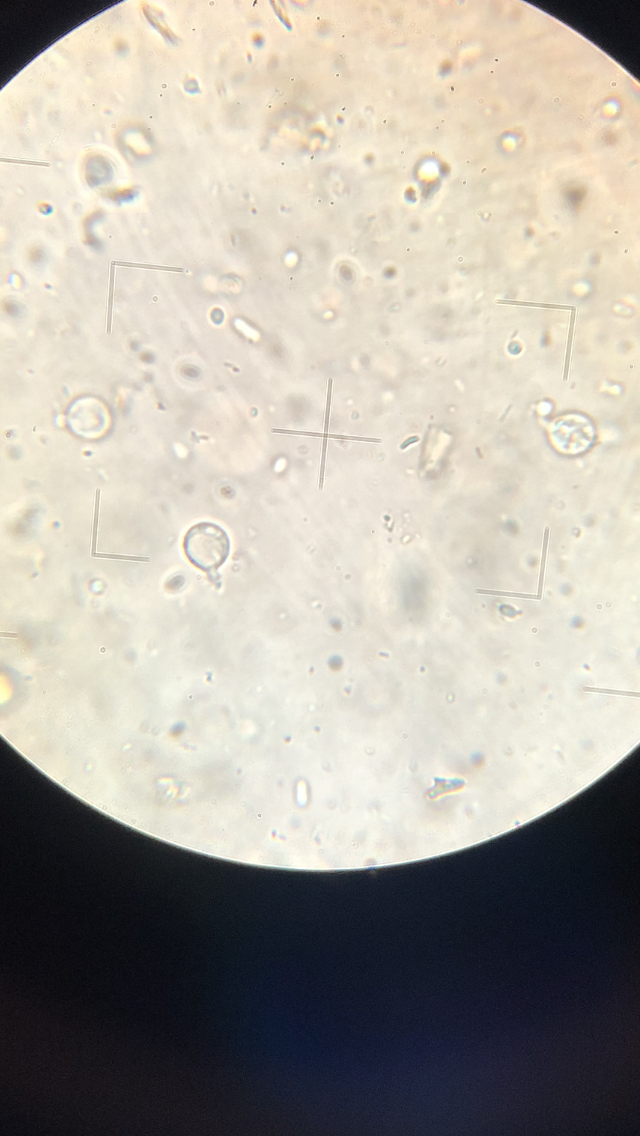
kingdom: Fungi
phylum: Basidiomycota
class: Tremellomycetes
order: Tremellales
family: Tremellaceae
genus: Phaeotremella
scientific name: Phaeotremella foliacea
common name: brun bævresvamp
